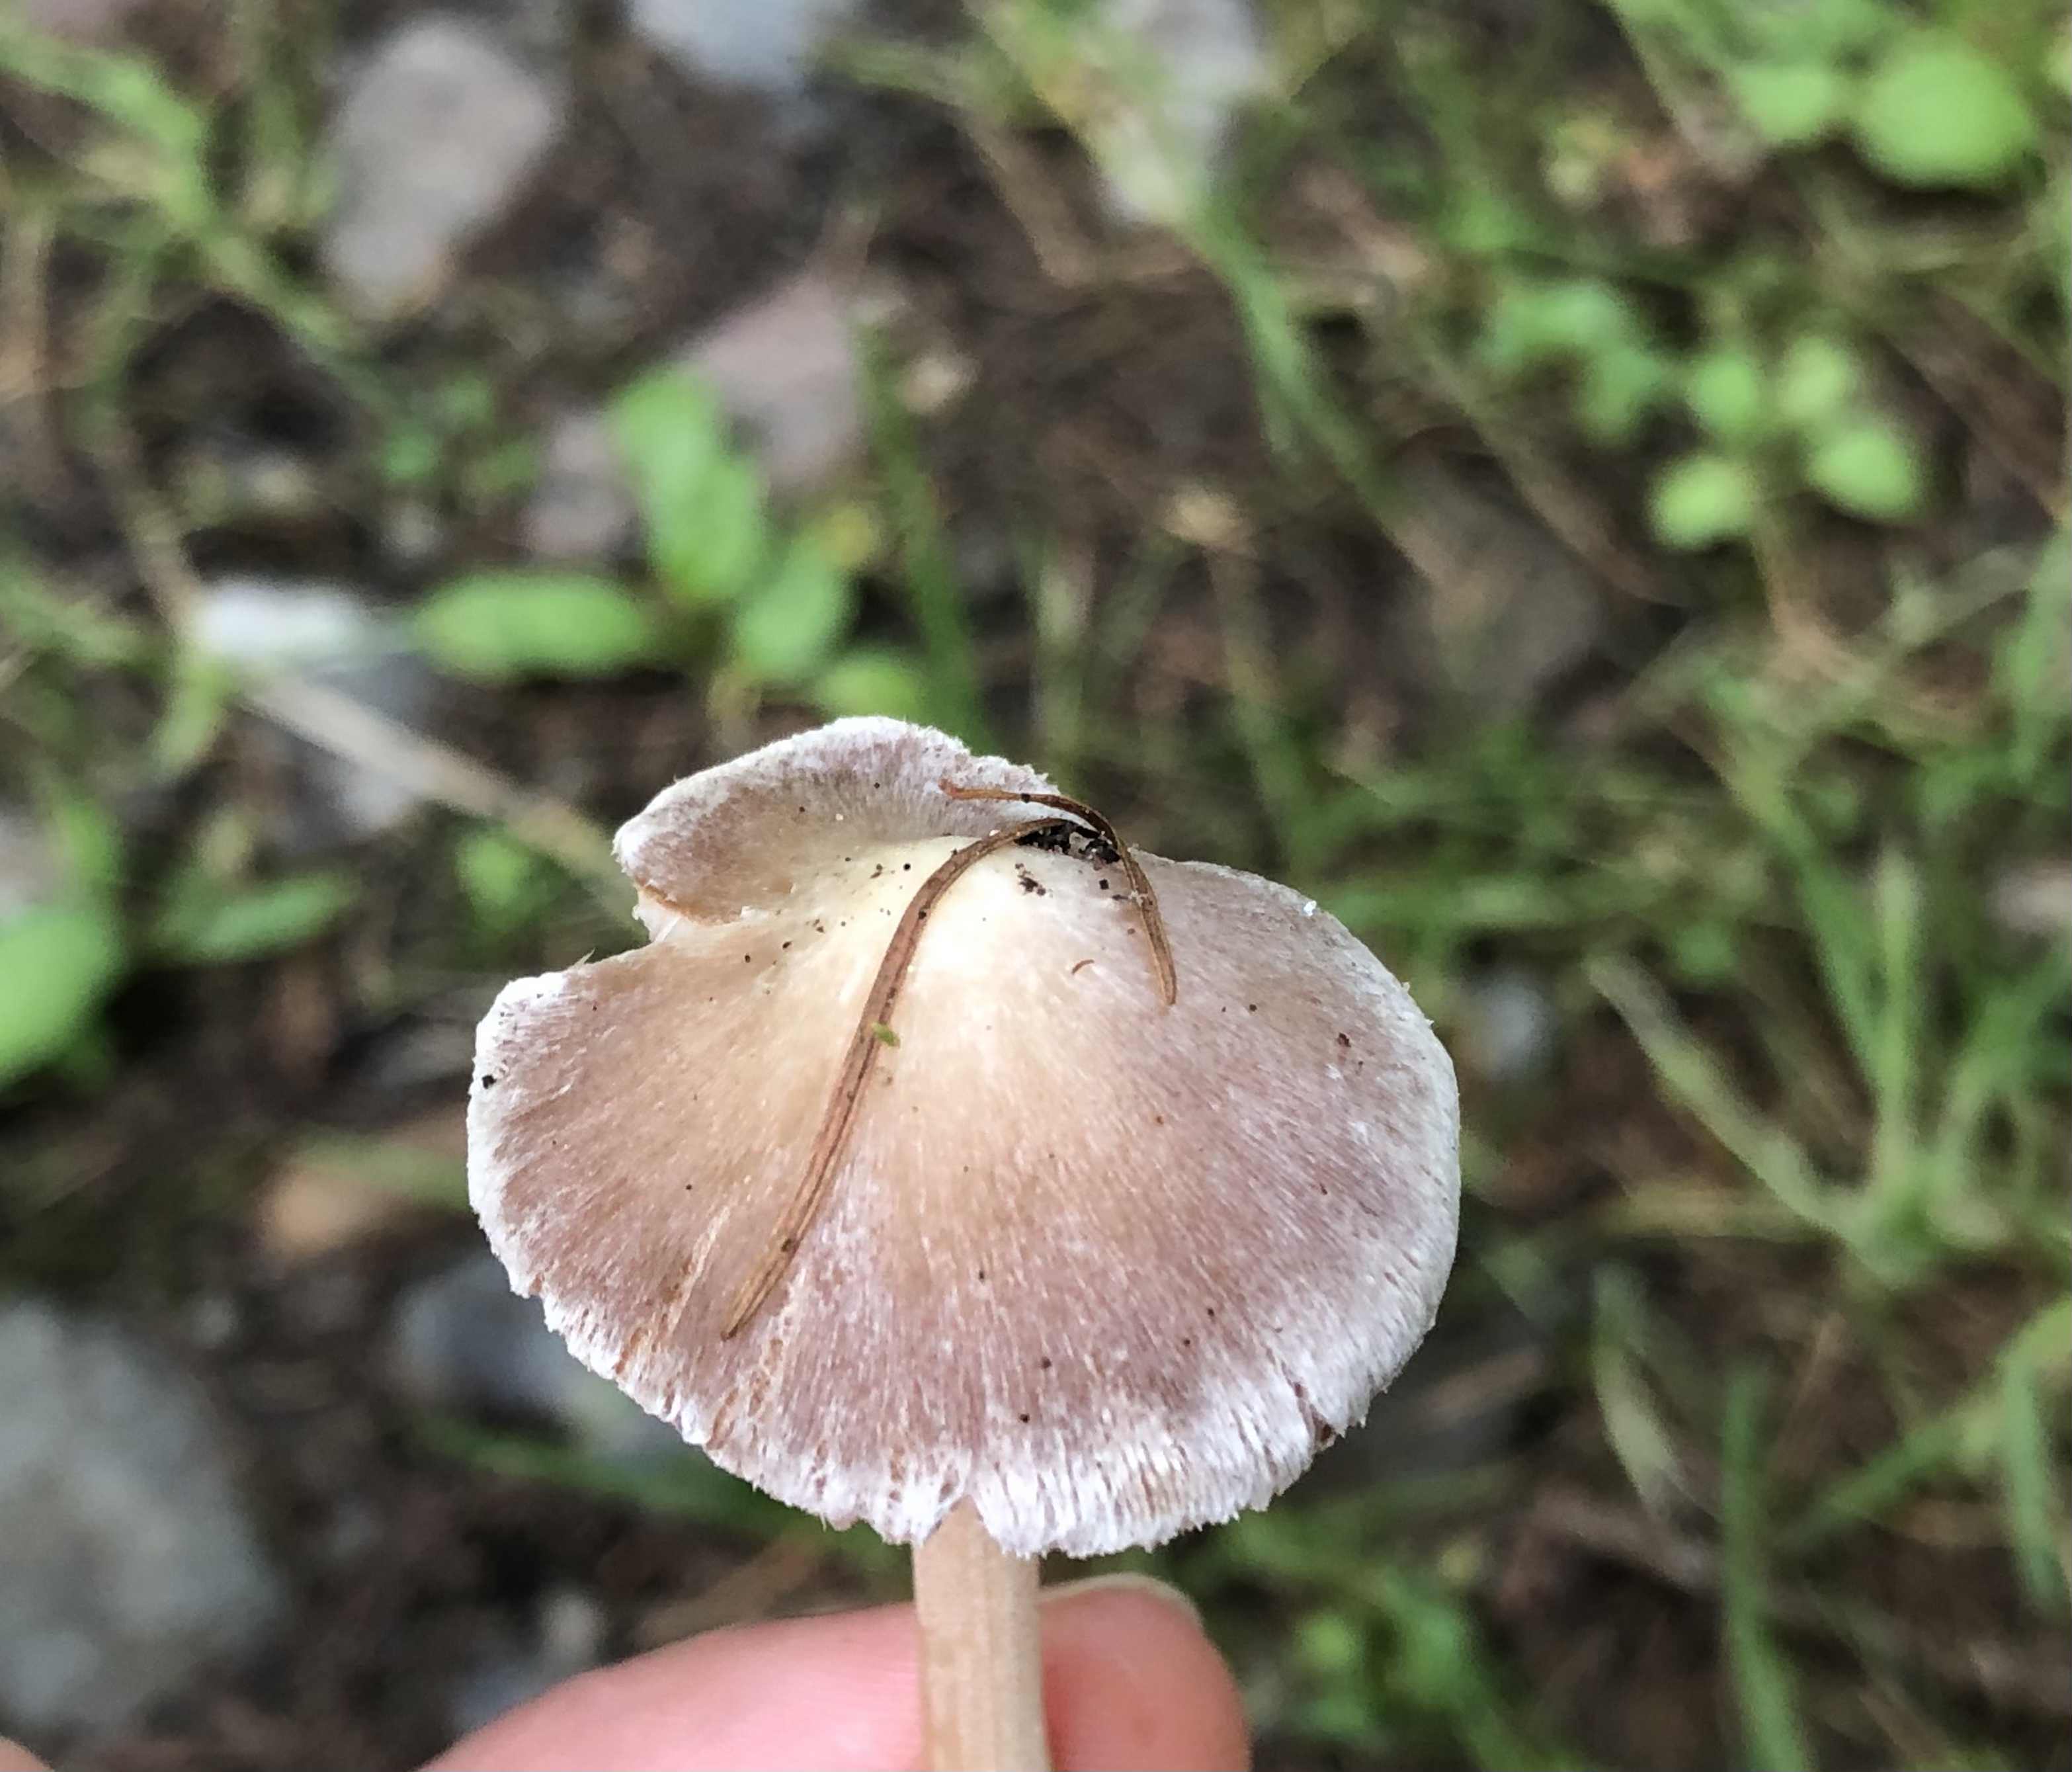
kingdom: Fungi
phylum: Basidiomycota
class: Agaricomycetes
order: Agaricales
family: Inocybaceae
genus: Inocybe
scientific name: Inocybe
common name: trævlhat
